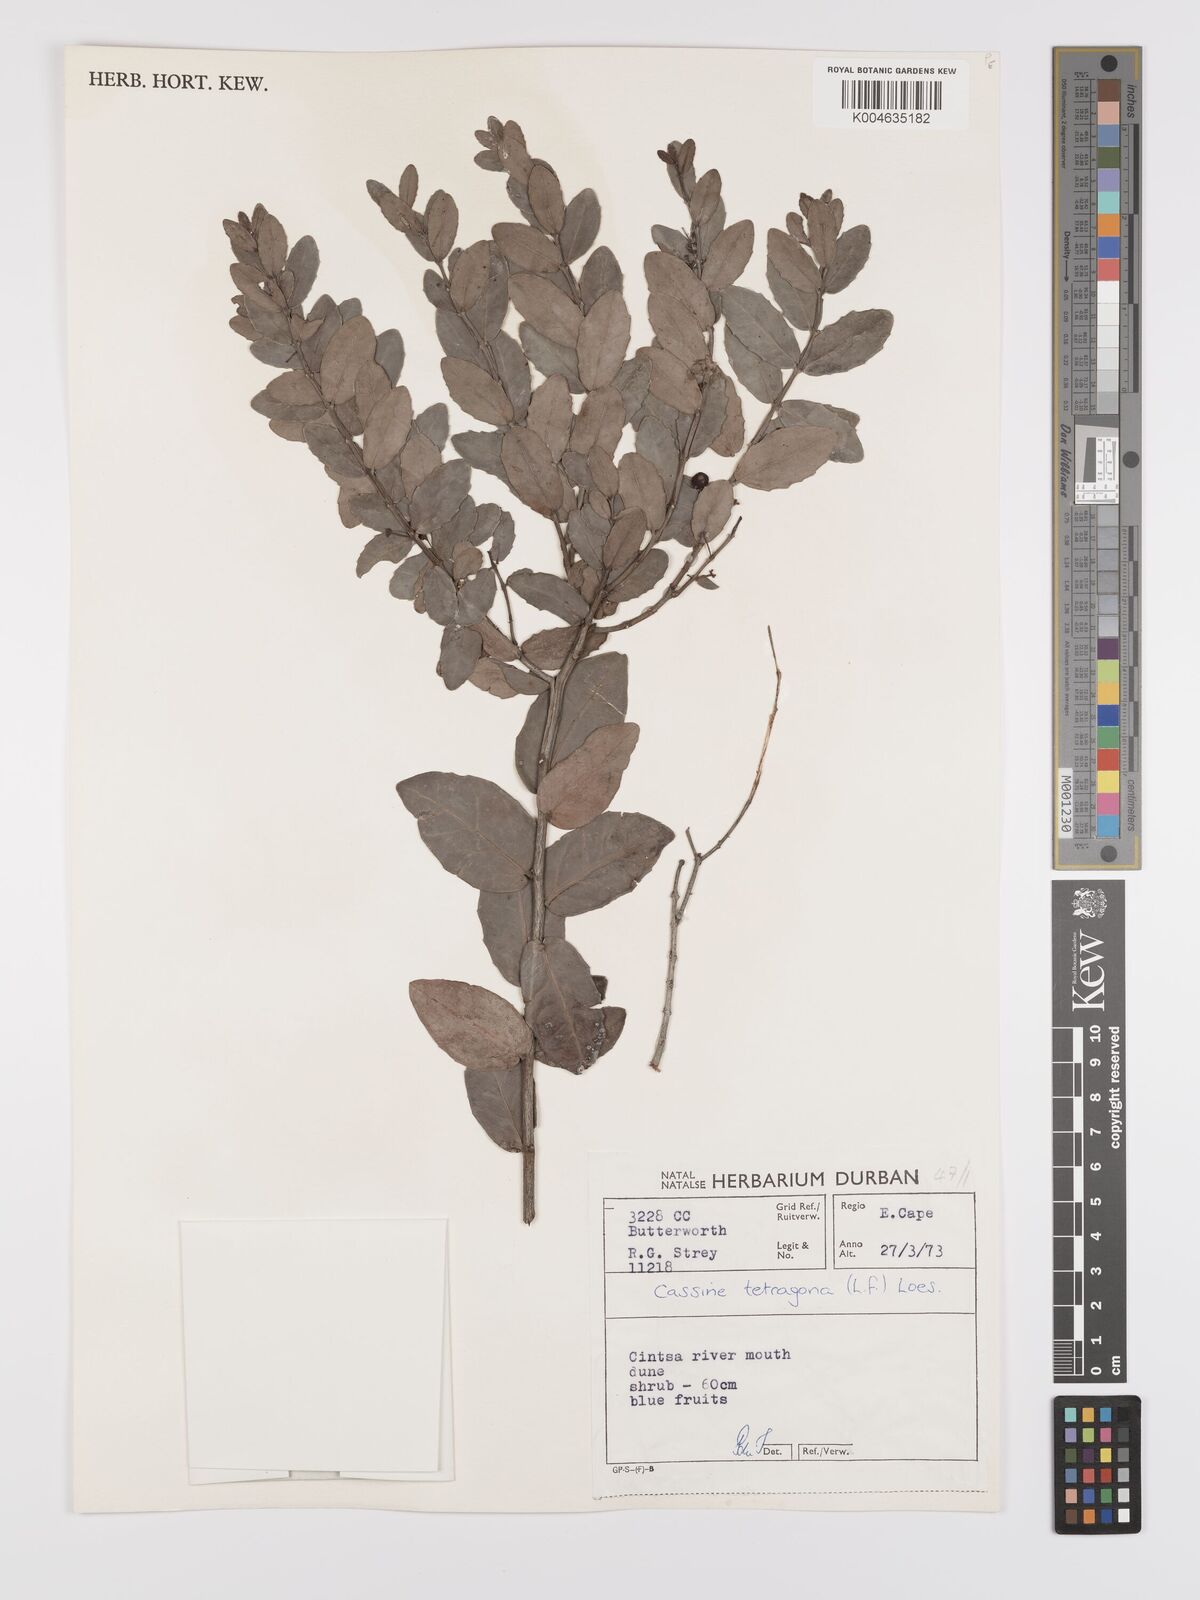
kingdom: Plantae
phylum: Tracheophyta
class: Magnoliopsida
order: Celastrales
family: Celastraceae
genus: Lauridia
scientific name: Lauridia tetragona
